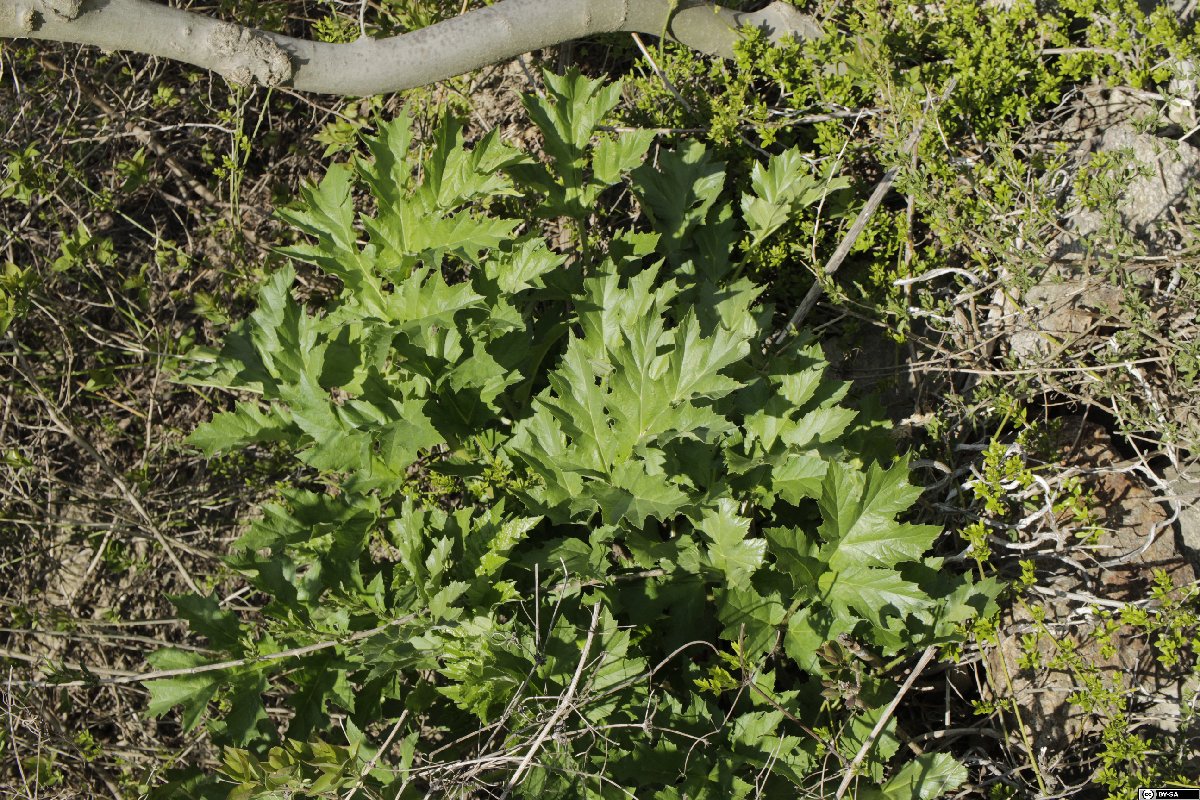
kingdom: Plantae
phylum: Tracheophyta
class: Magnoliopsida
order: Apiales
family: Apiaceae
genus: Heracleum
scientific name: Heracleum mantegazzianum
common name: Giant hogweed
